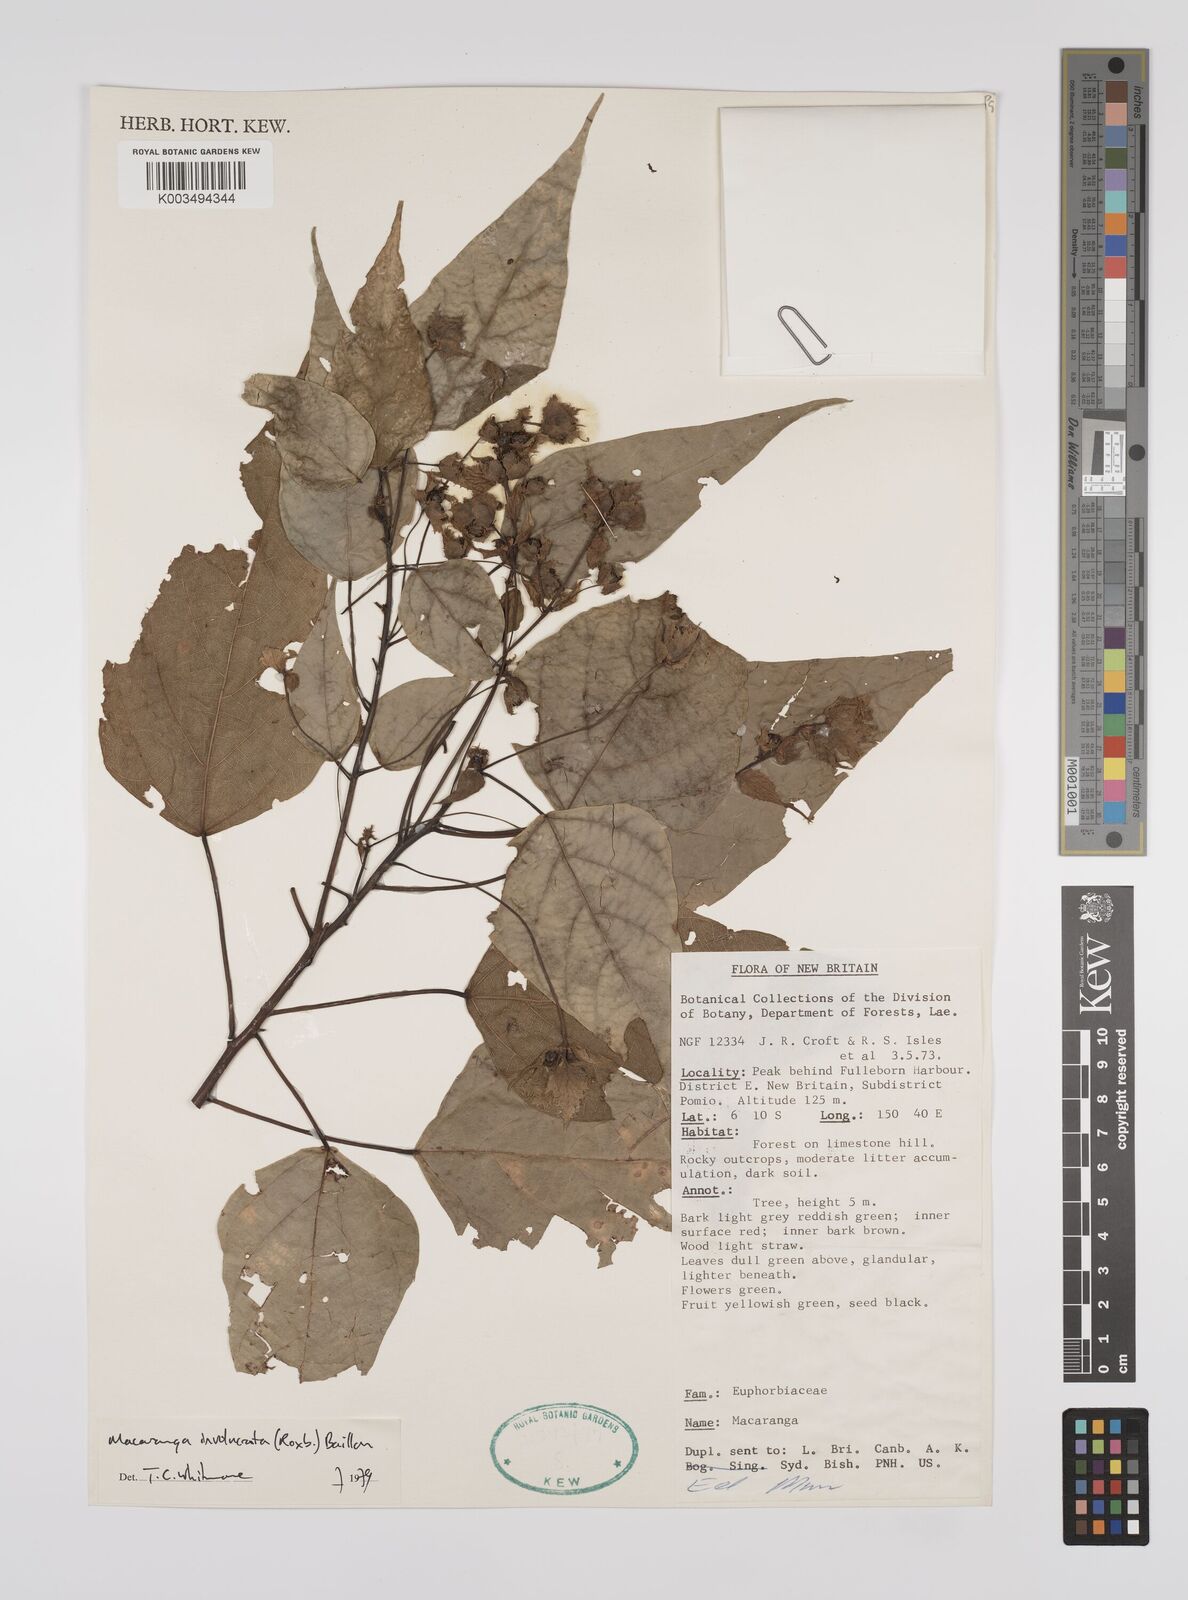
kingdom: Plantae
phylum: Tracheophyta
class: Magnoliopsida
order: Malpighiales
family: Euphorbiaceae
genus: Macaranga
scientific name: Macaranga involucrata
